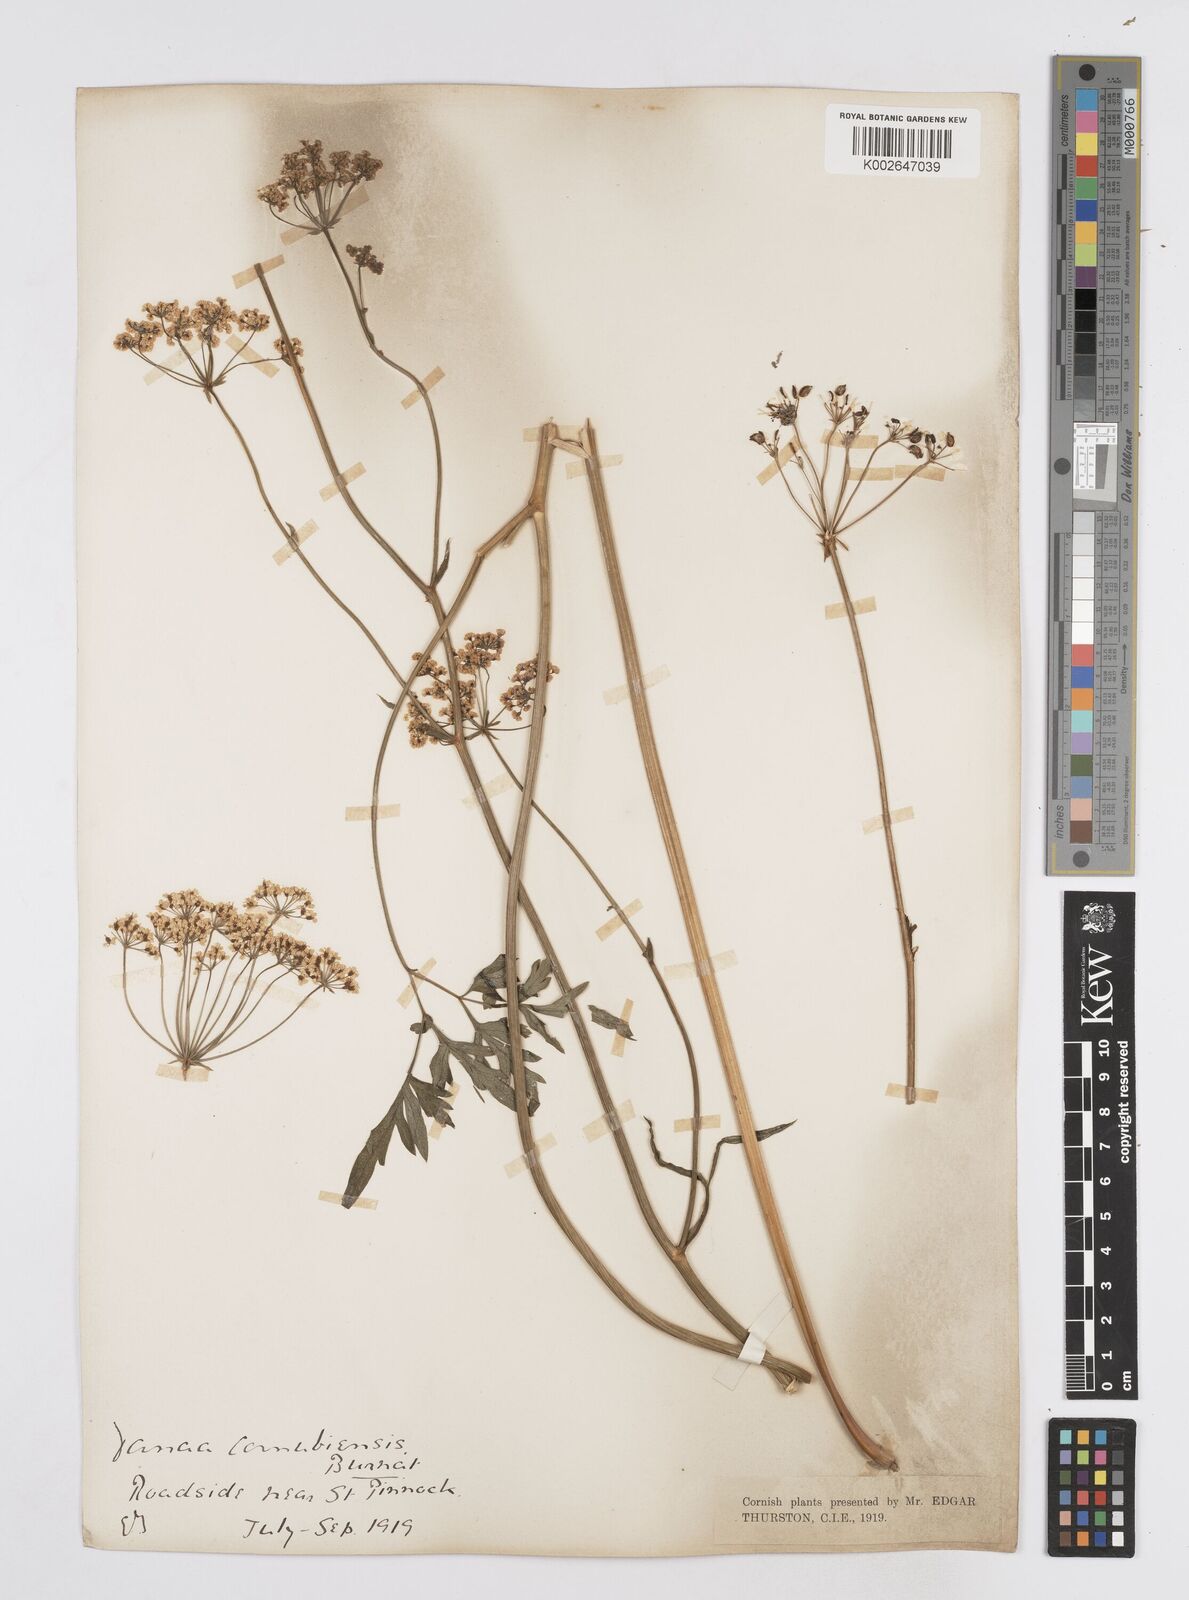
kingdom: Plantae
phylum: Tracheophyta
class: Magnoliopsida
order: Apiales
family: Apiaceae
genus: Physospermum
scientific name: Physospermum cornubiense
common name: Bladderseed
